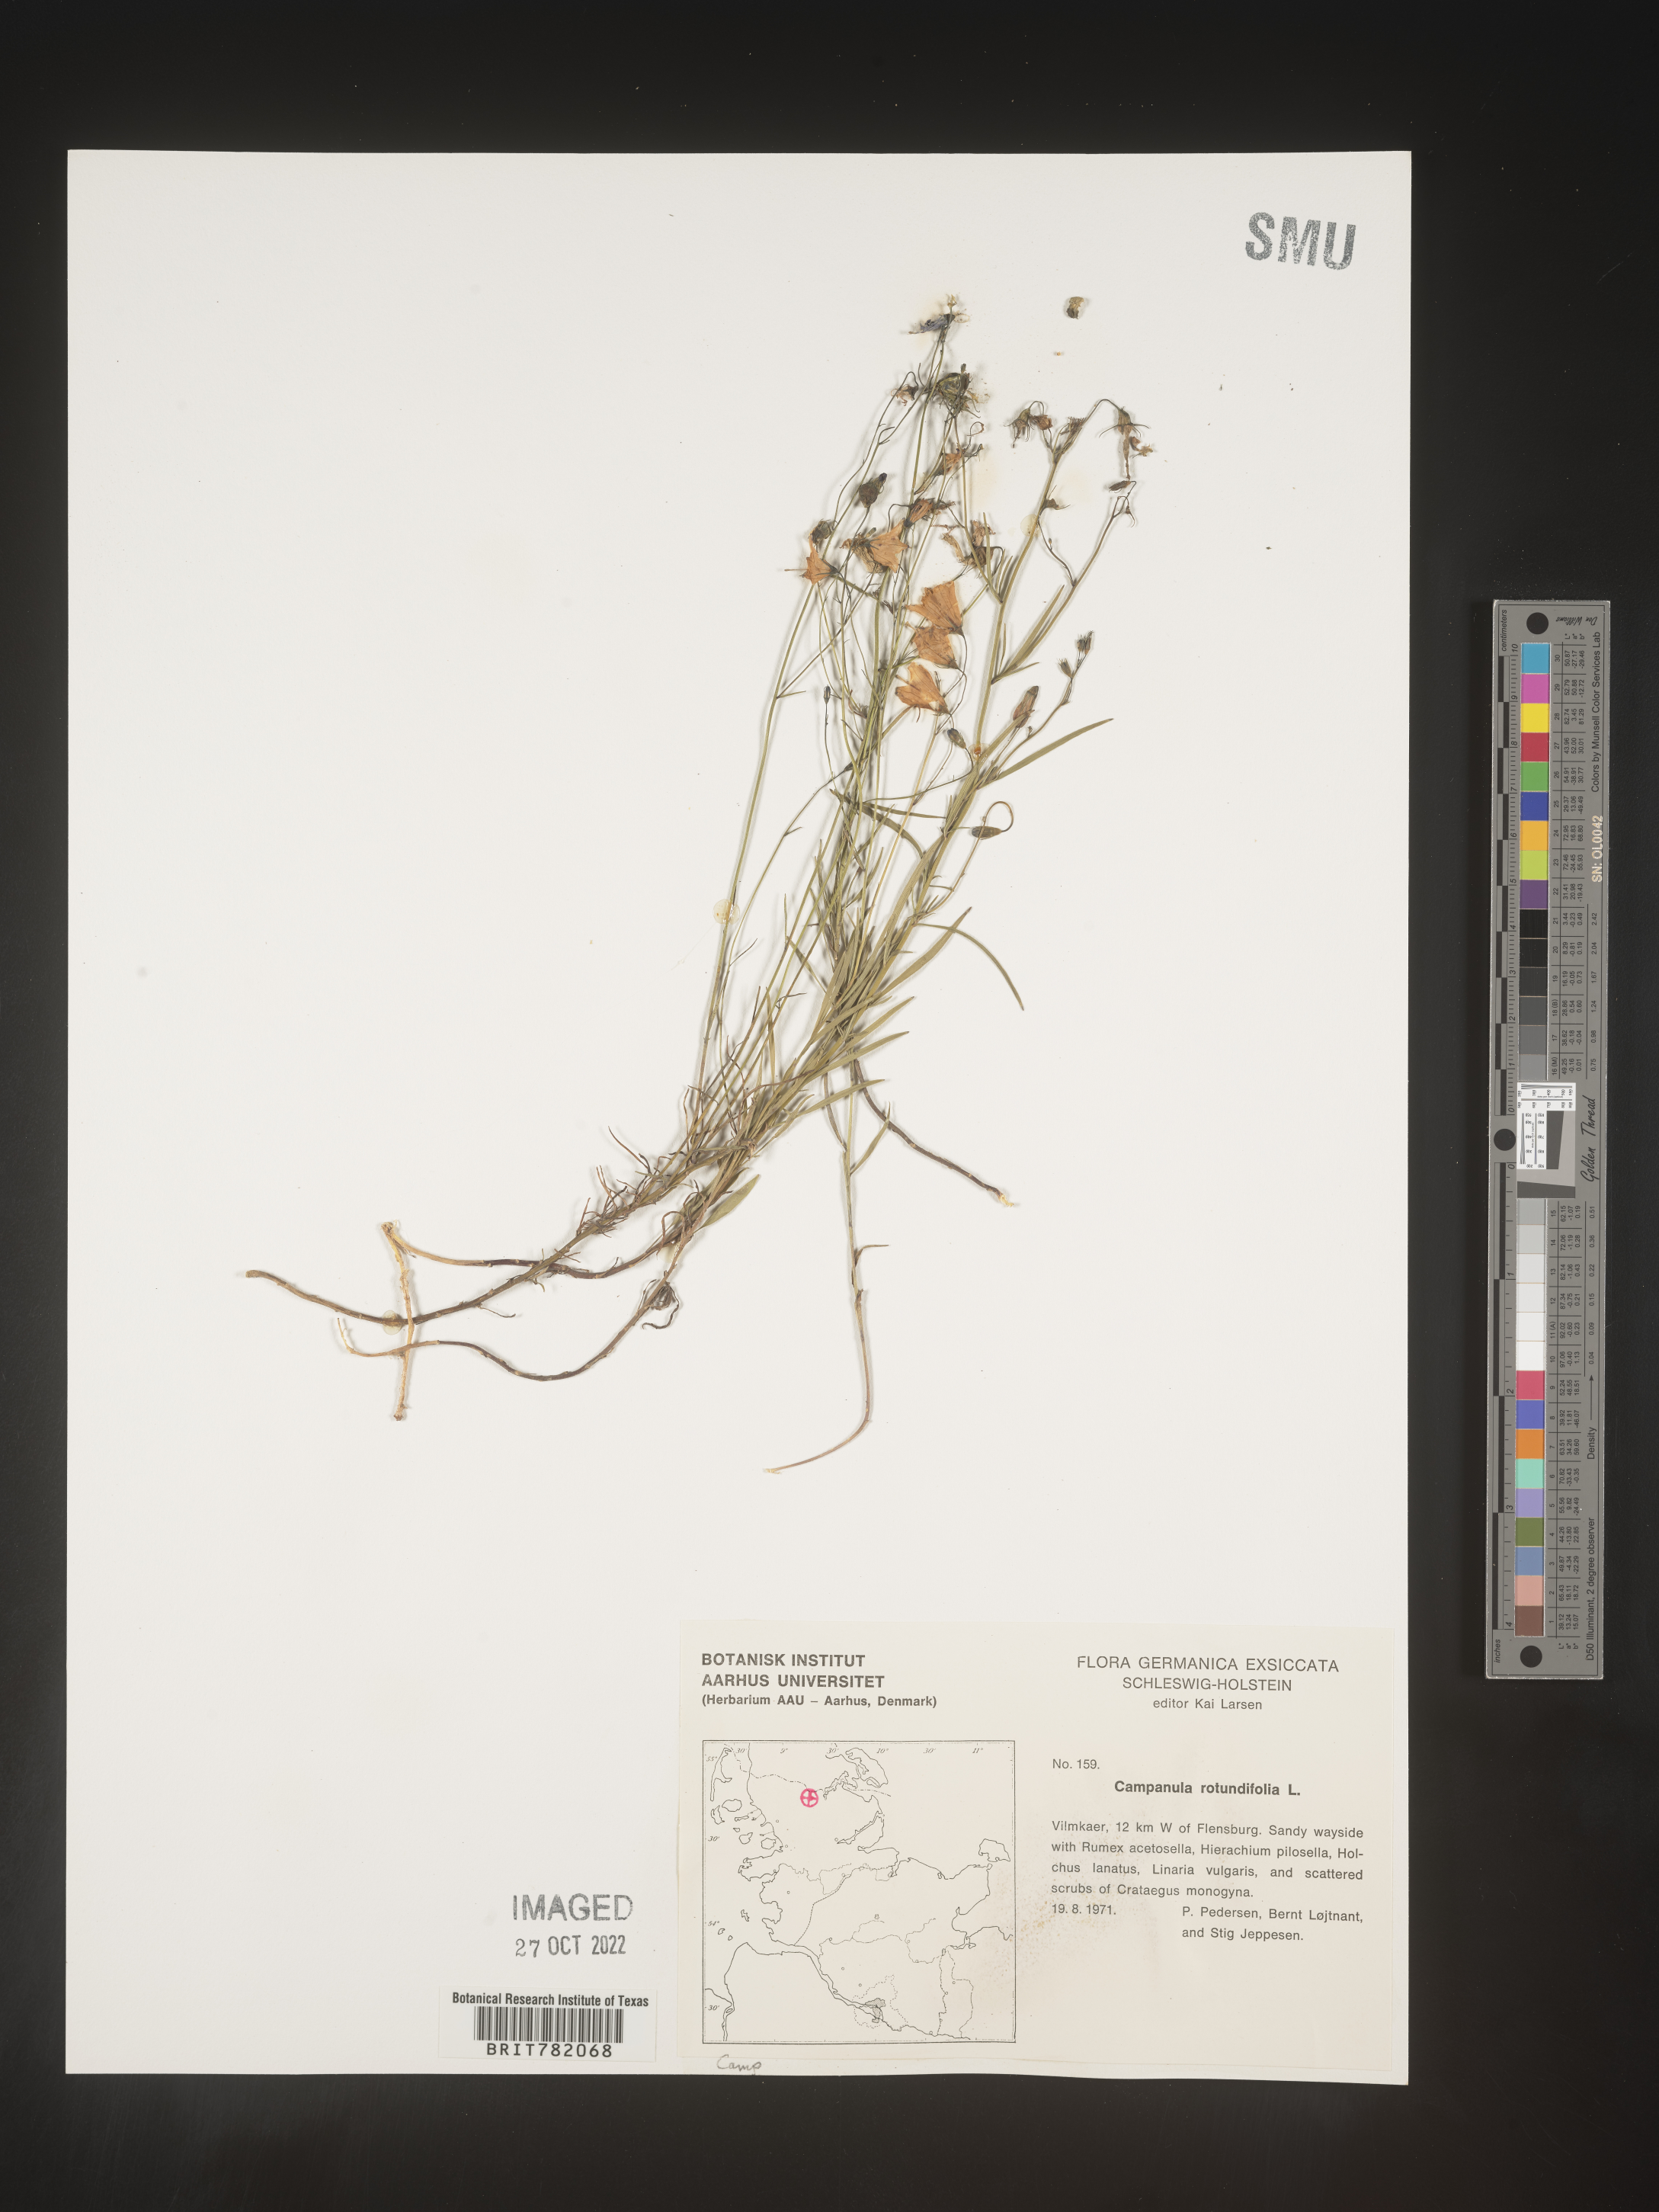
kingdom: Plantae
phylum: Tracheophyta
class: Magnoliopsida
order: Asterales
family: Campanulaceae
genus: Campanula
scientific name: Campanula rotundifolia
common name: Harebell
